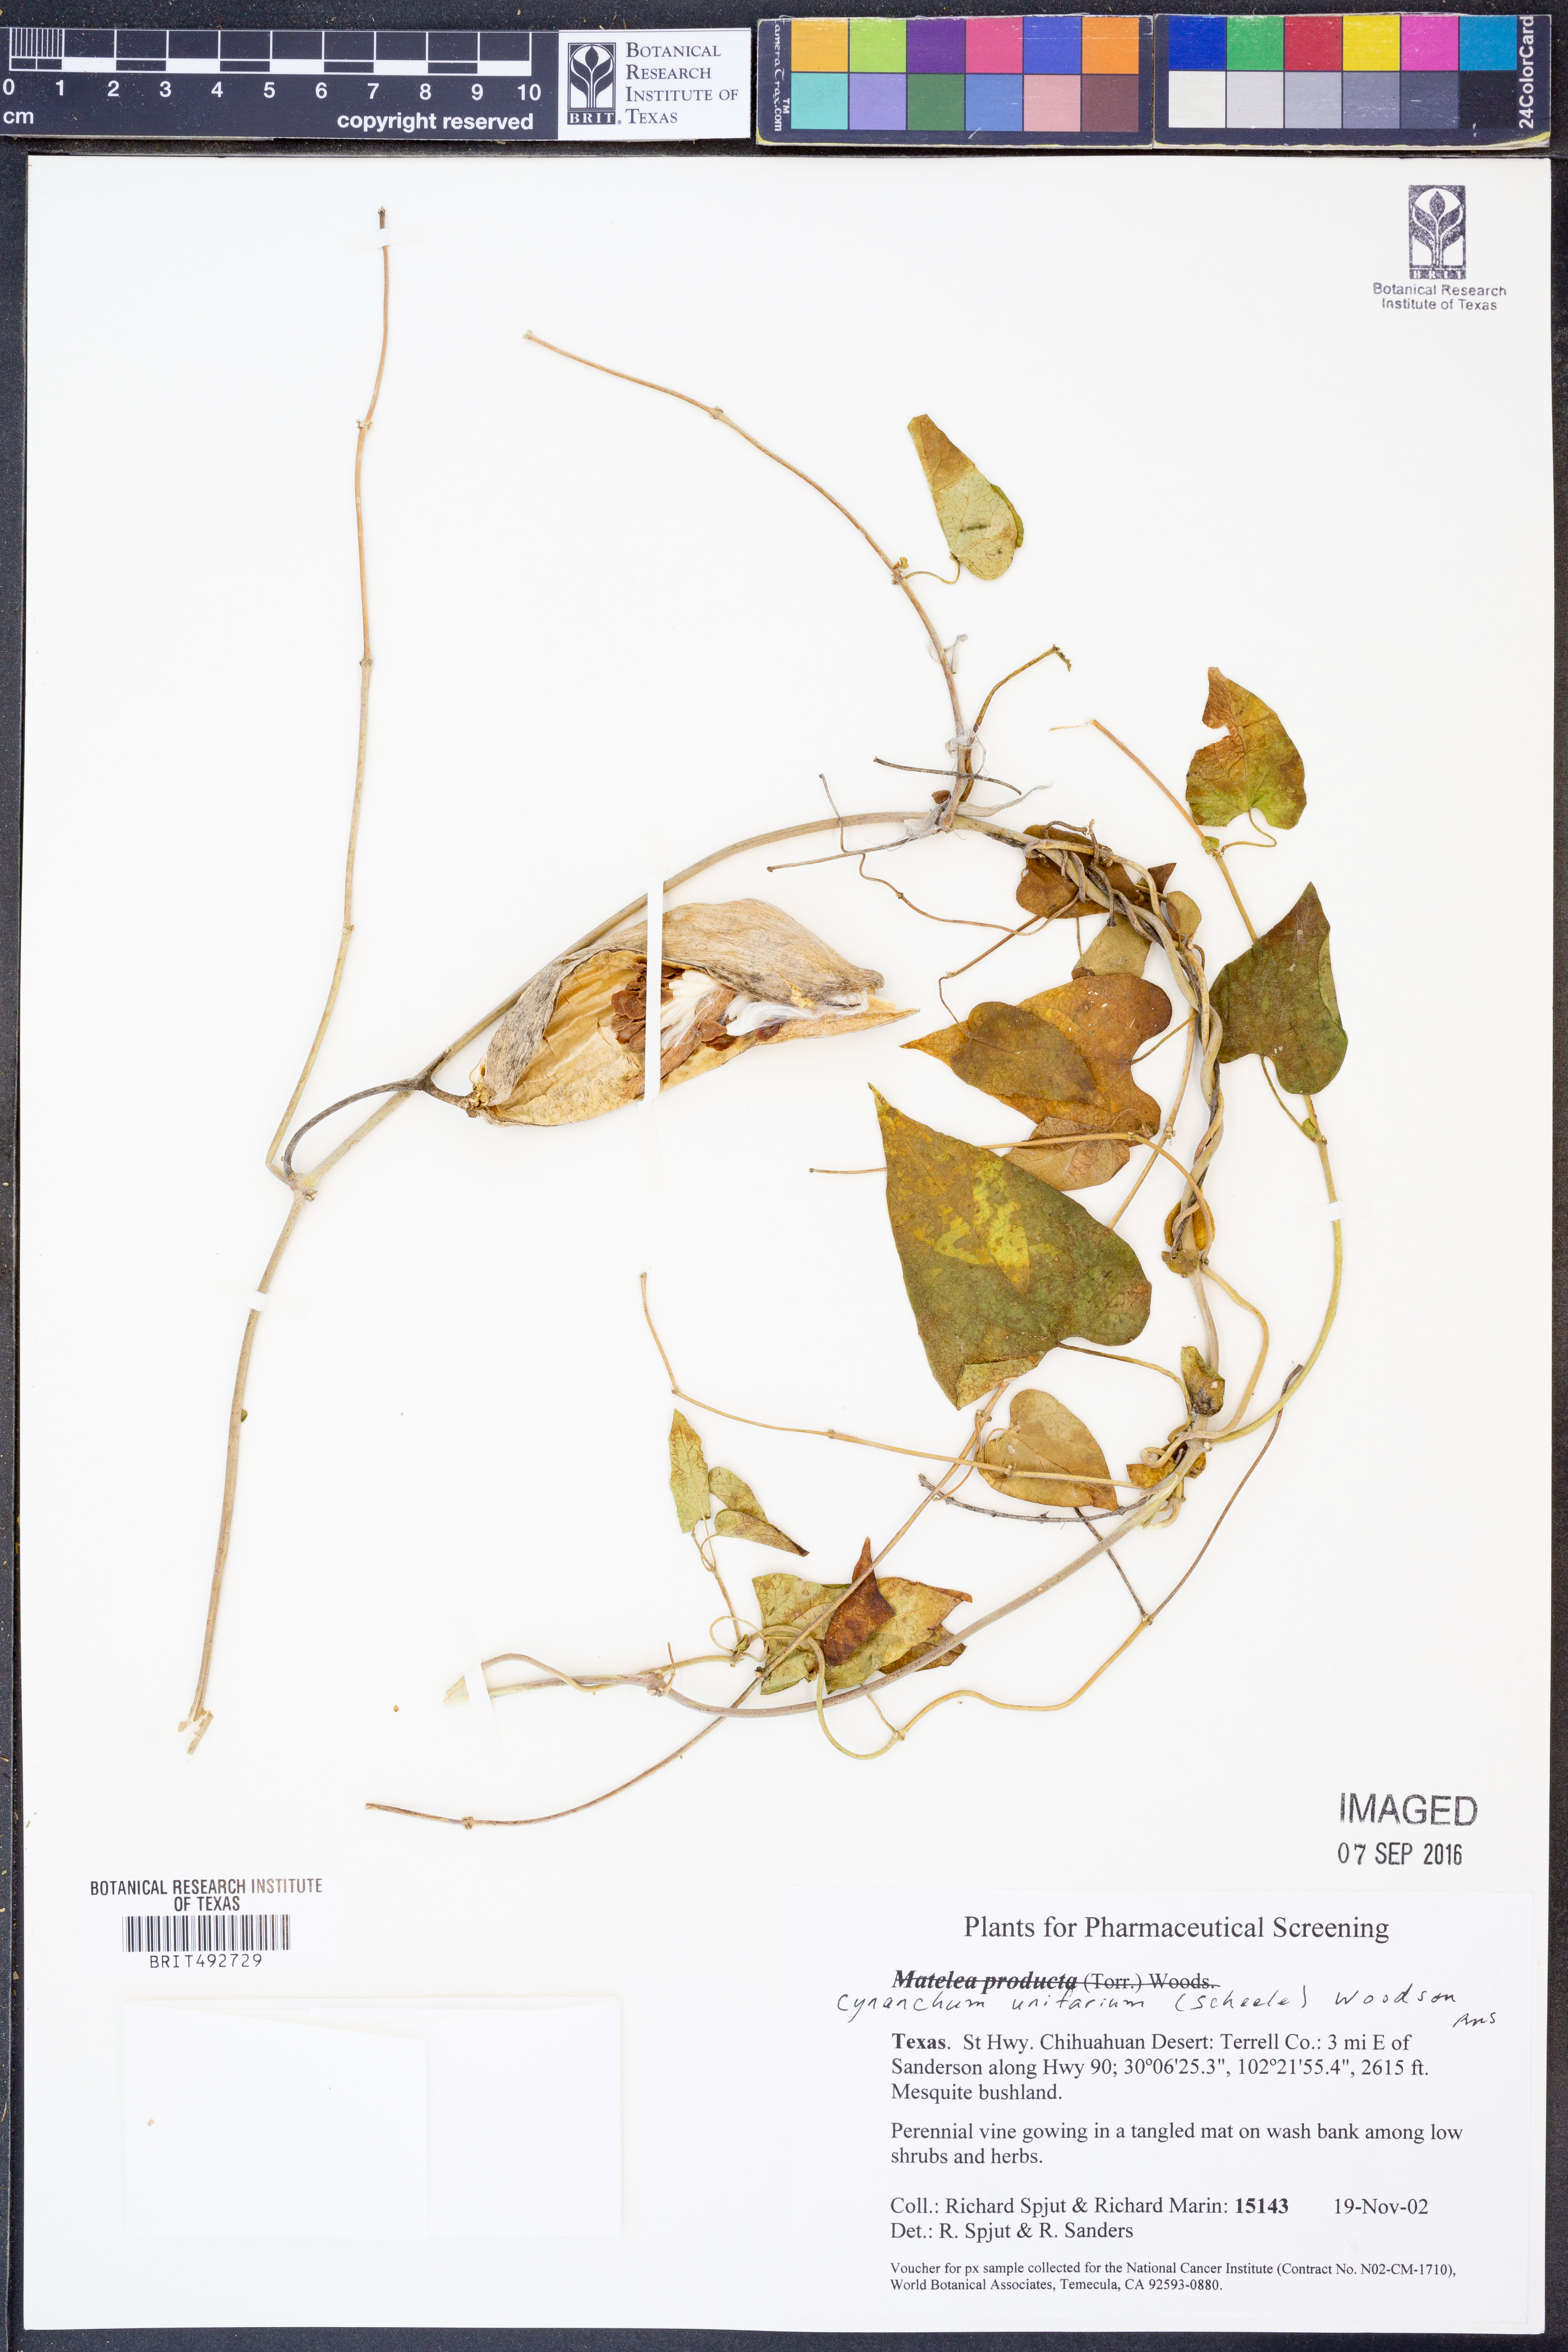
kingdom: Plantae
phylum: Tracheophyta
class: Magnoliopsida
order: Gentianales
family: Apocynaceae
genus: Cynanchum
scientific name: Cynanchum racemosum
